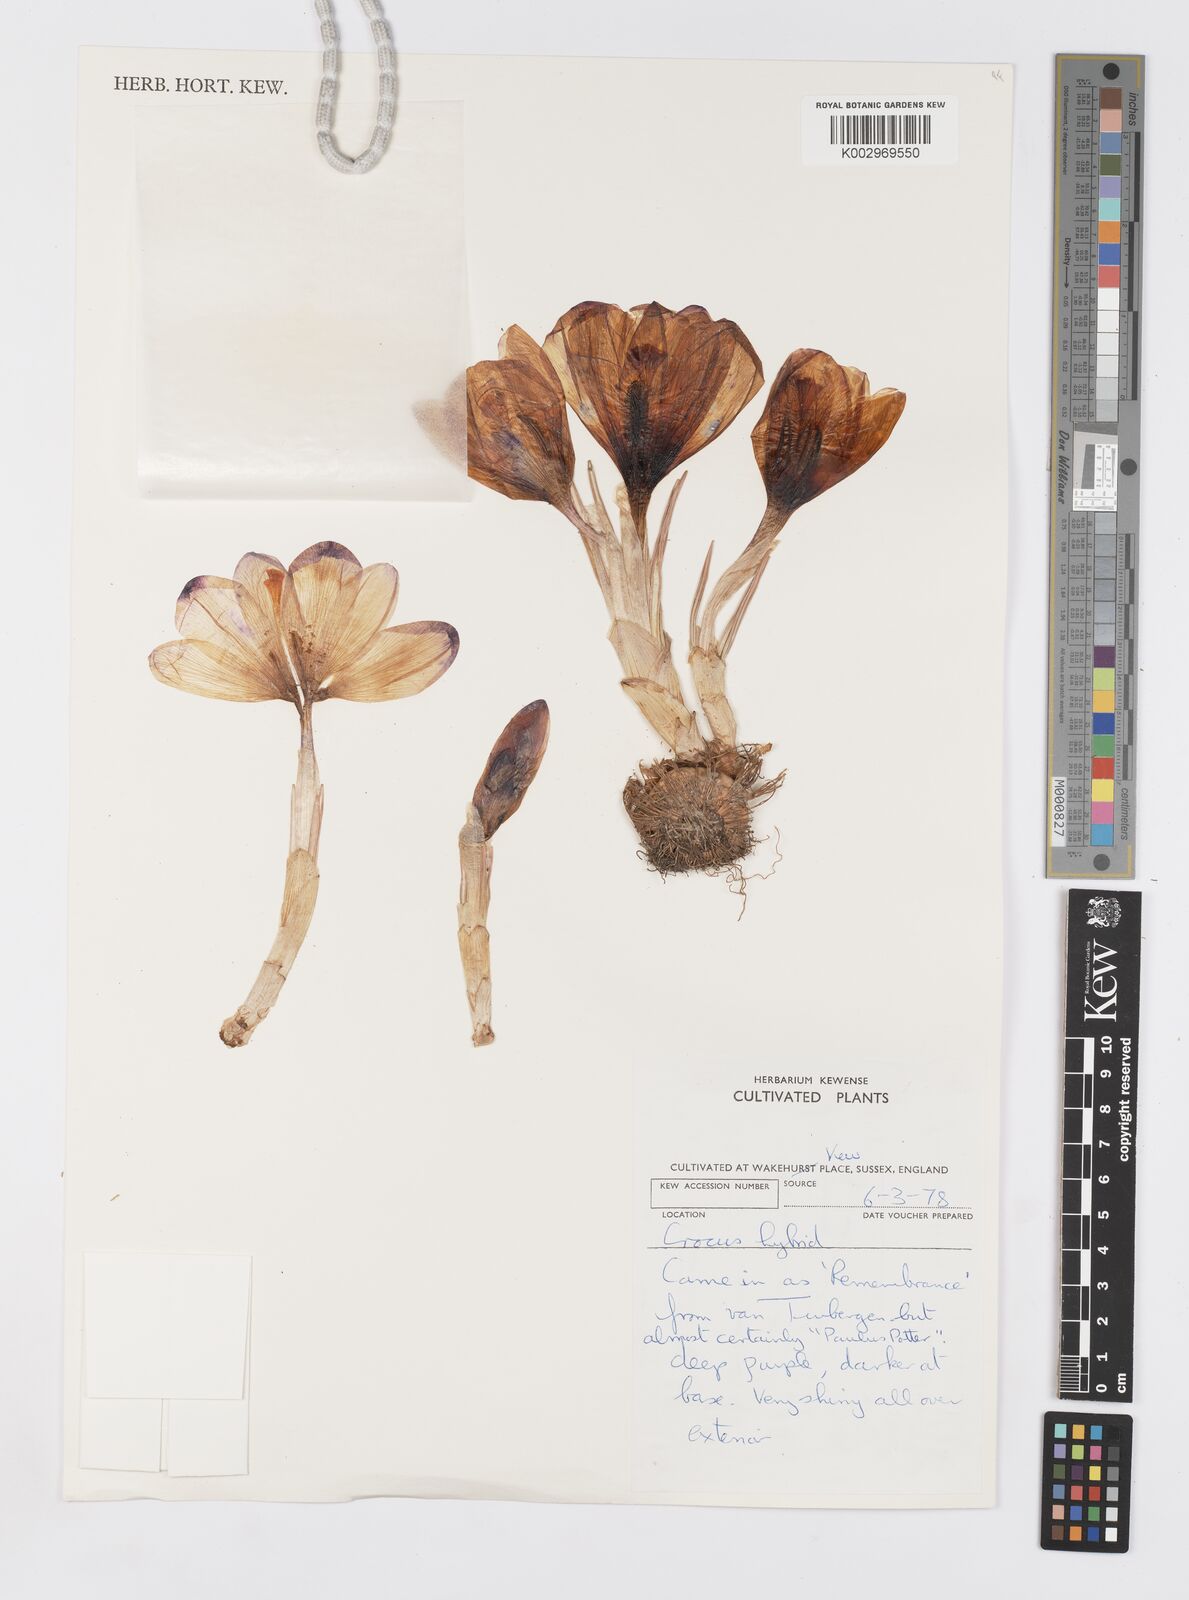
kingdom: Plantae
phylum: Tracheophyta
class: Liliopsida
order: Asparagales
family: Iridaceae
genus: Crocus
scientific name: Crocus
